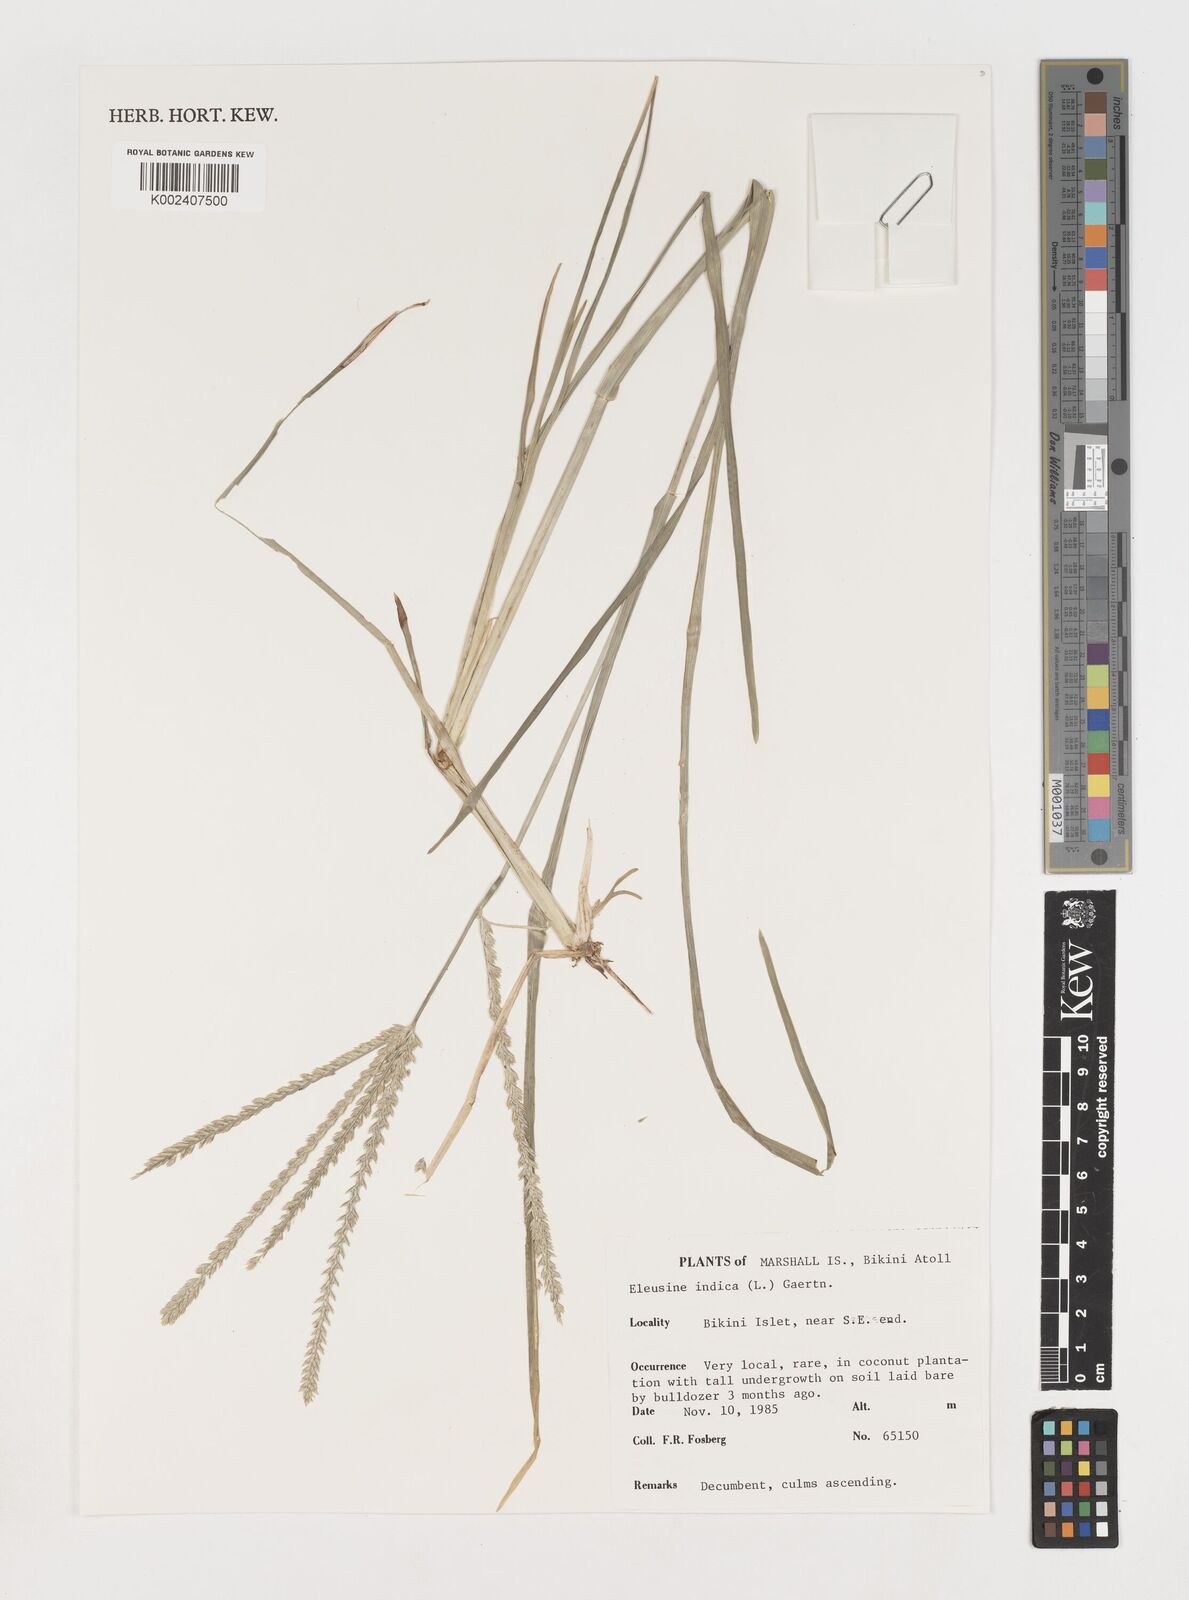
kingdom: Plantae
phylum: Tracheophyta
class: Liliopsida
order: Poales
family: Poaceae
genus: Eleusine
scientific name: Eleusine indica
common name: Yard-grass
